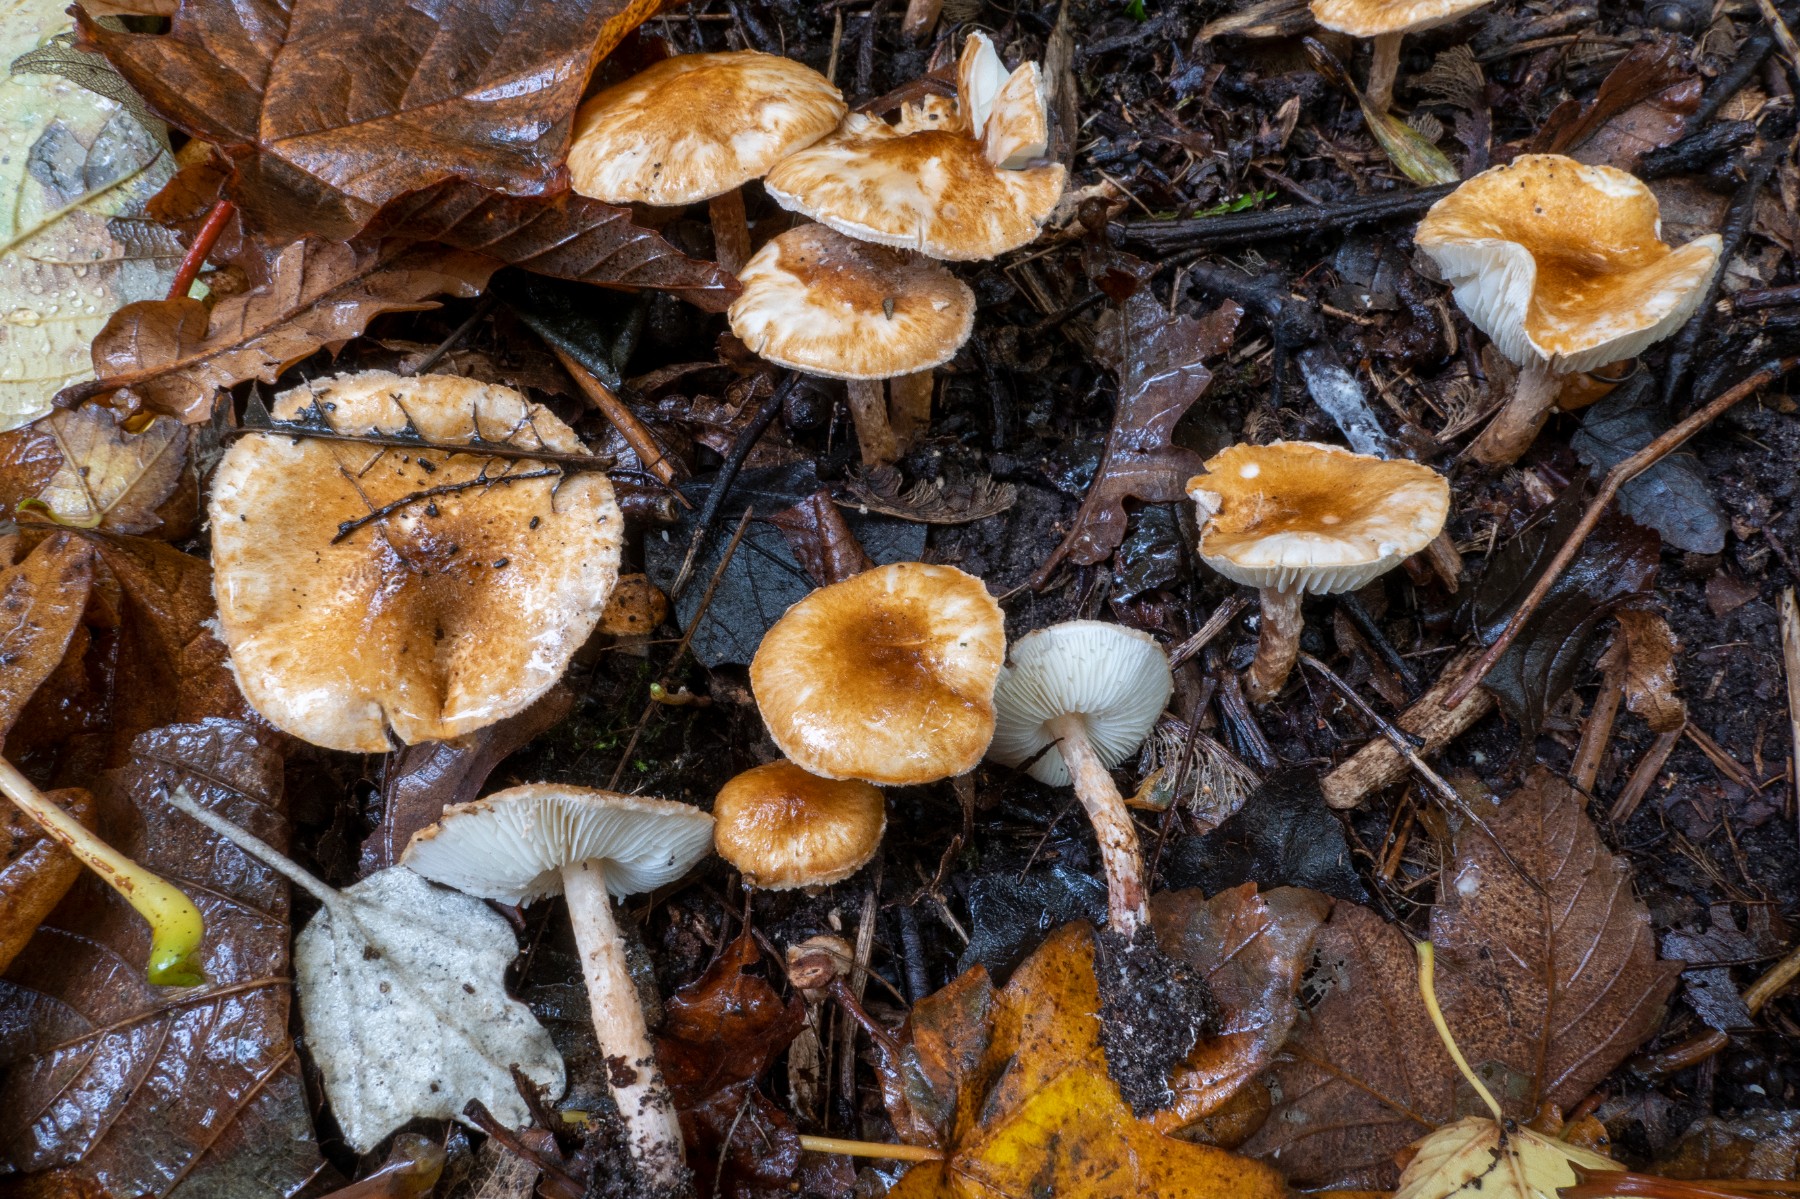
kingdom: Fungi
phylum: Basidiomycota
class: Agaricomycetes
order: Agaricales
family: Agaricaceae
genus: Leucocoprinus
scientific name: Leucocoprinus straminellus
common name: rustbrun parasolhat
